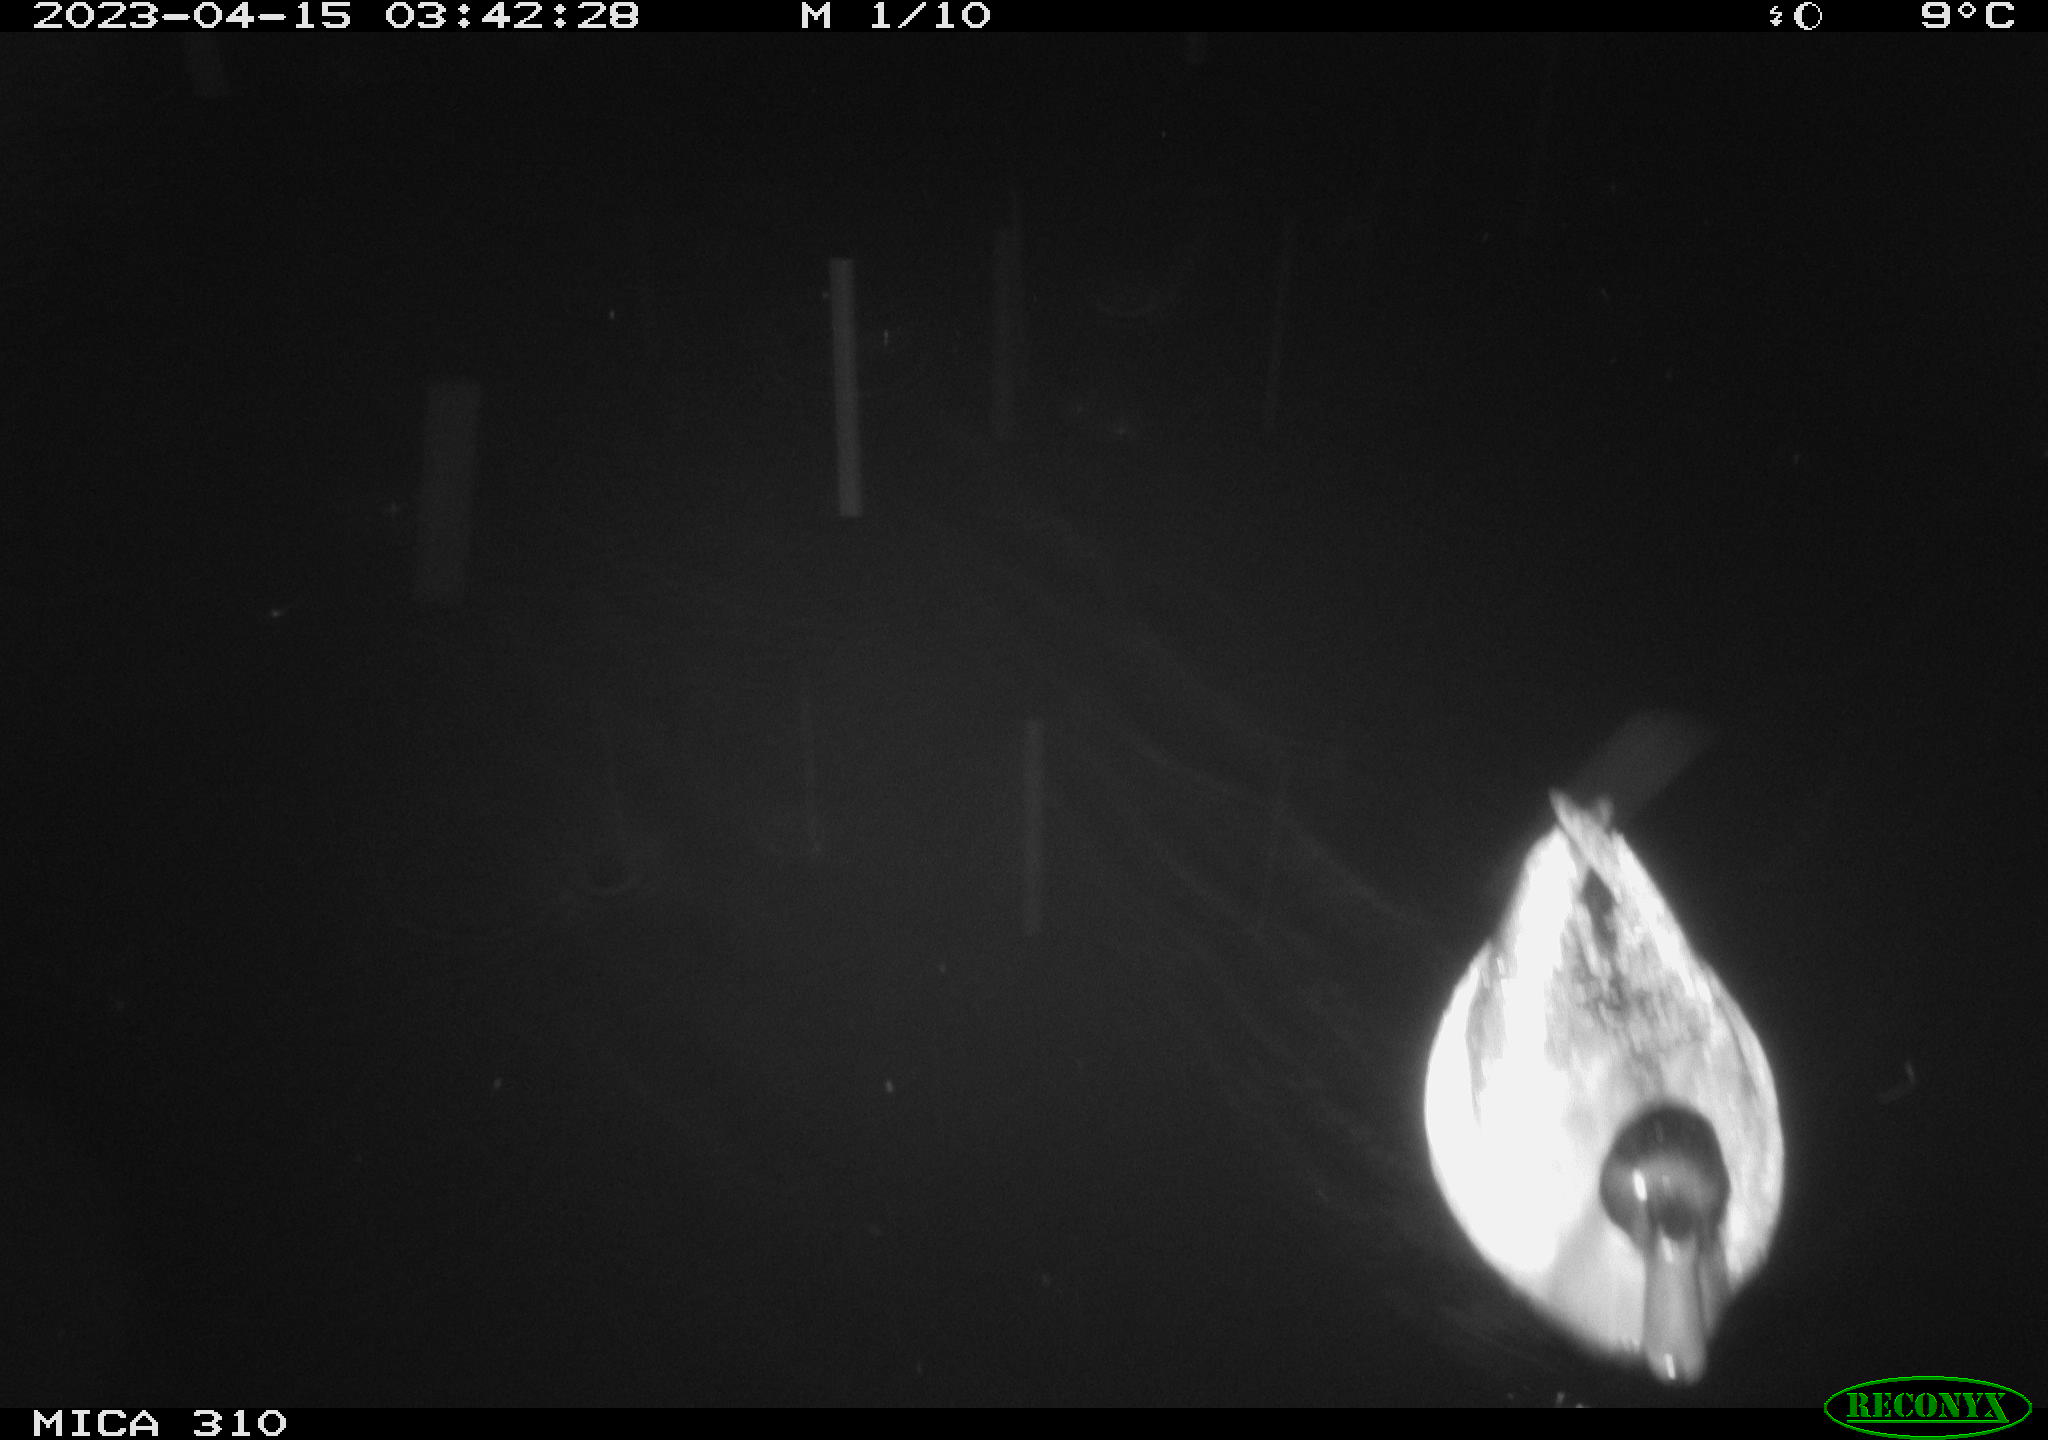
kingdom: Animalia
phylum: Chordata
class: Aves
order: Anseriformes
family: Anatidae
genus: Anas
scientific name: Anas
